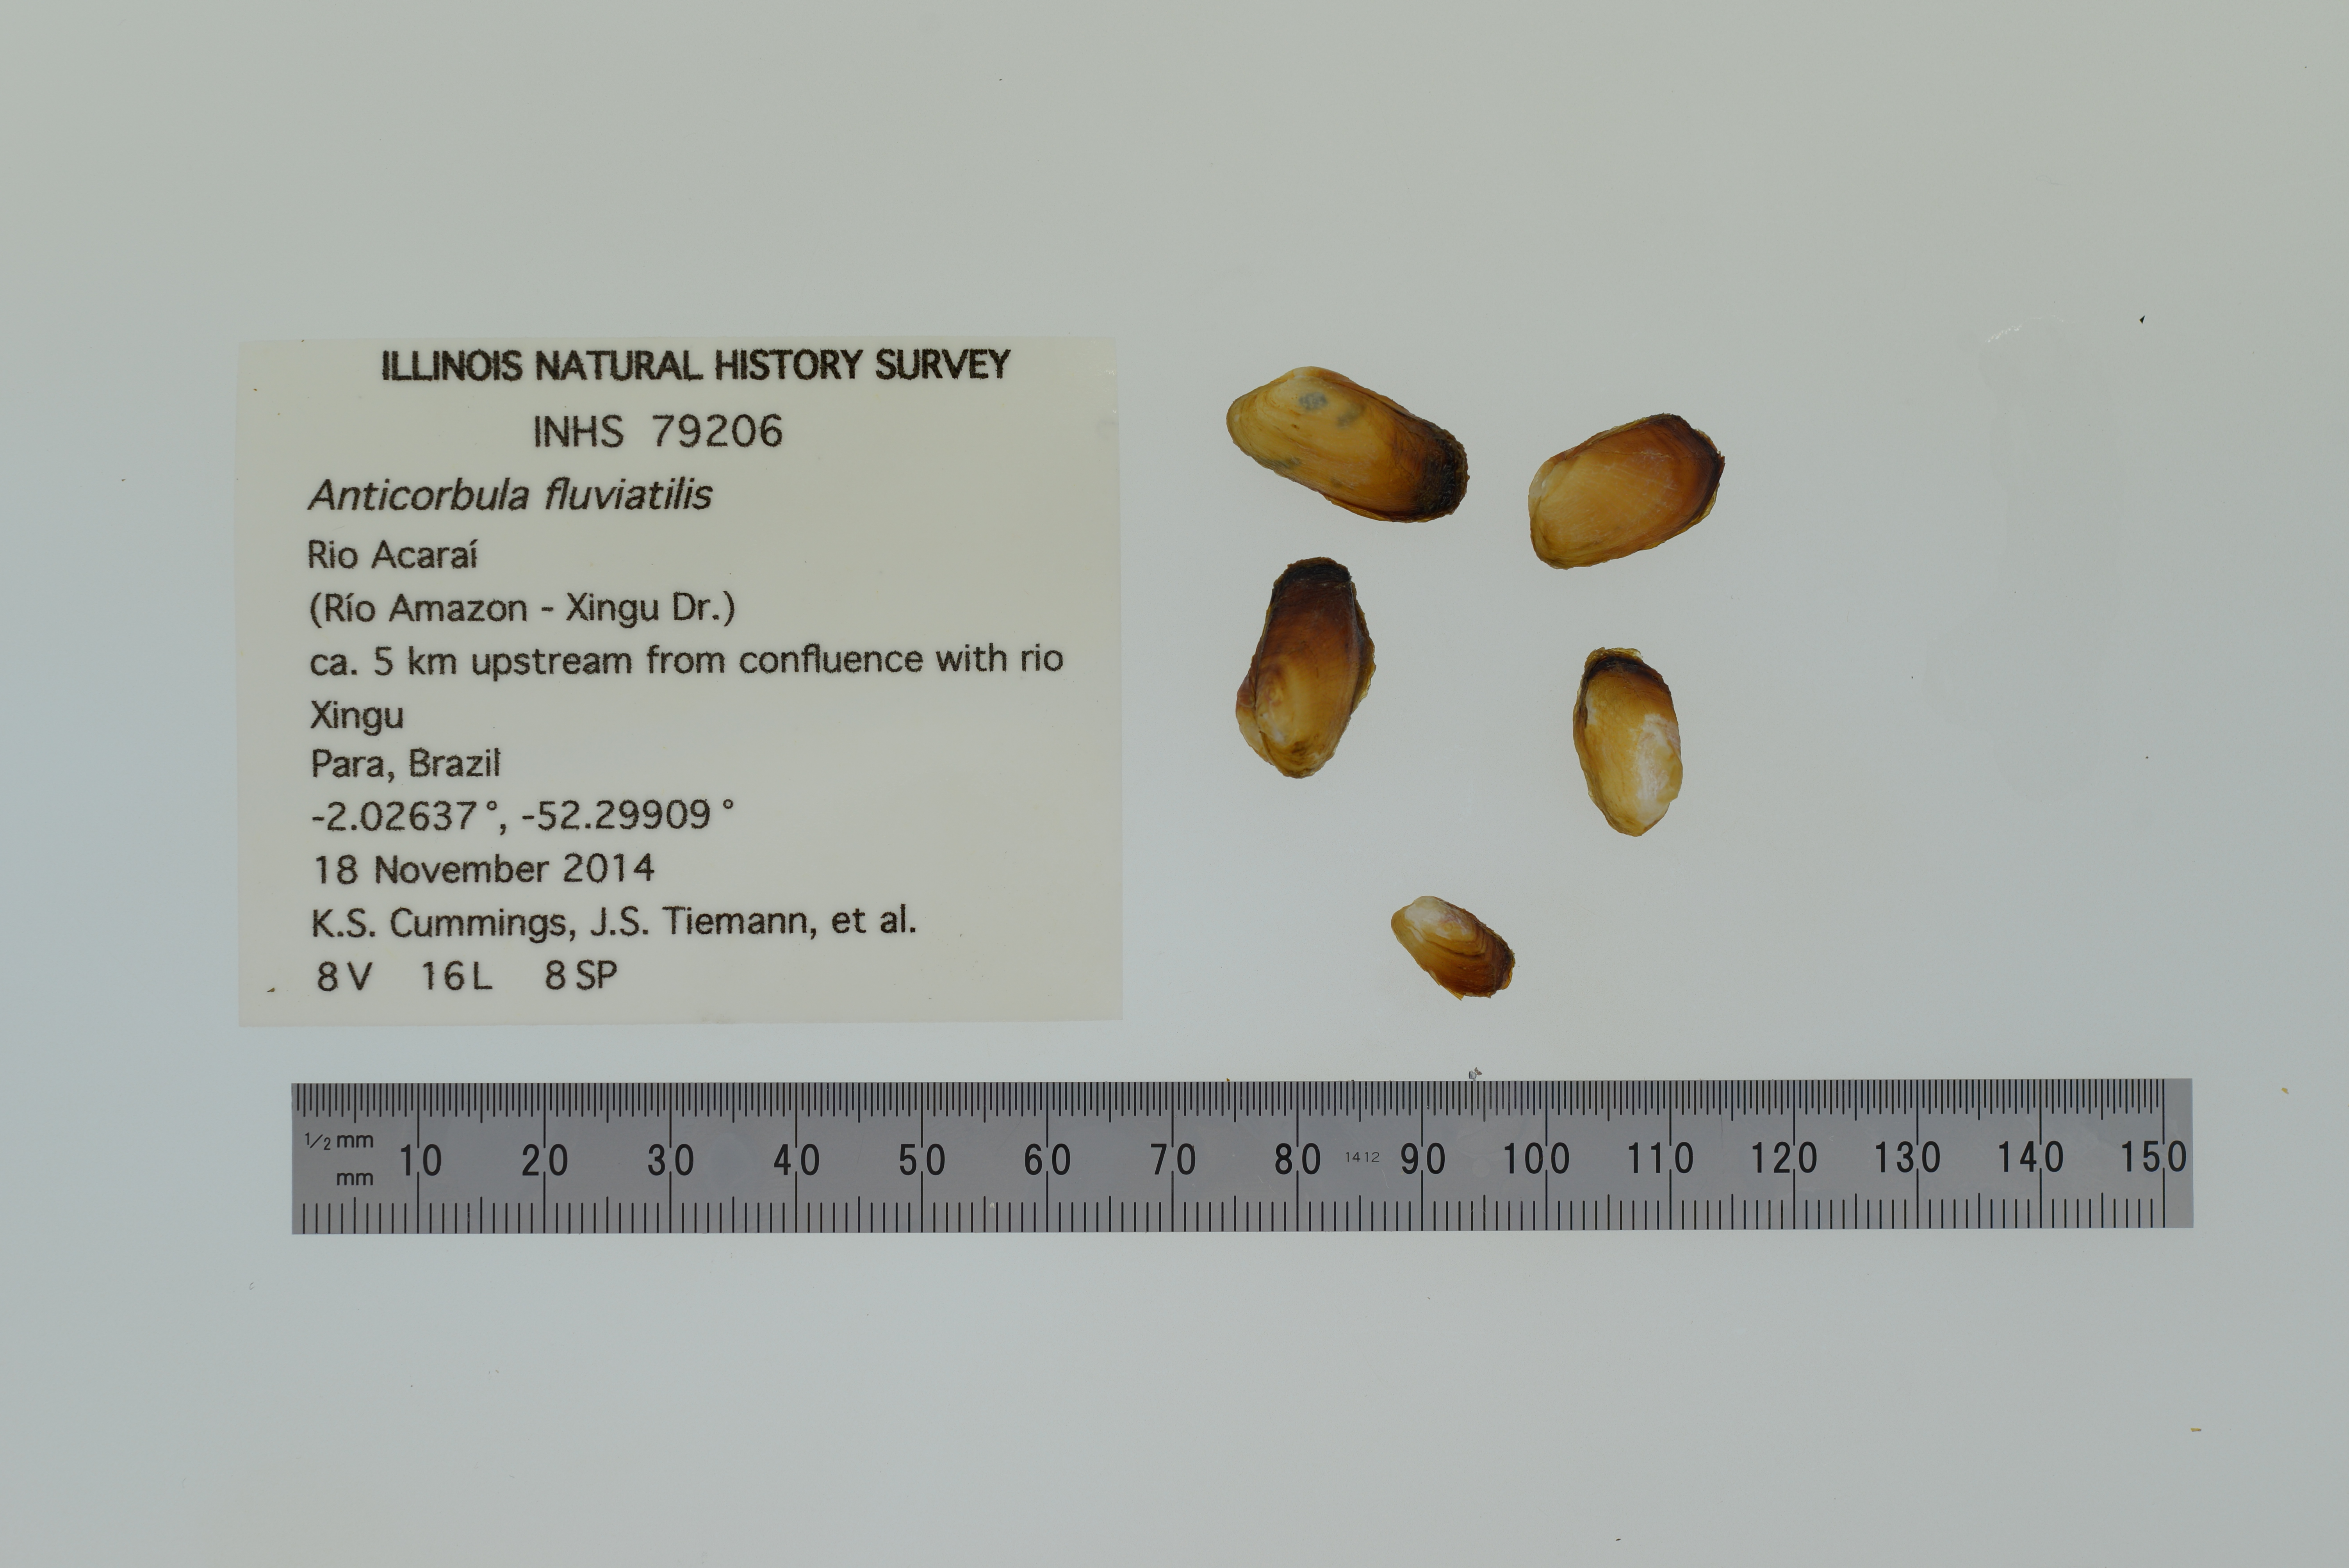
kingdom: Animalia
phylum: Mollusca
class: Bivalvia
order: Myida
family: Corbulidae
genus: Anticorbula
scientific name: Anticorbula fluviatilis
